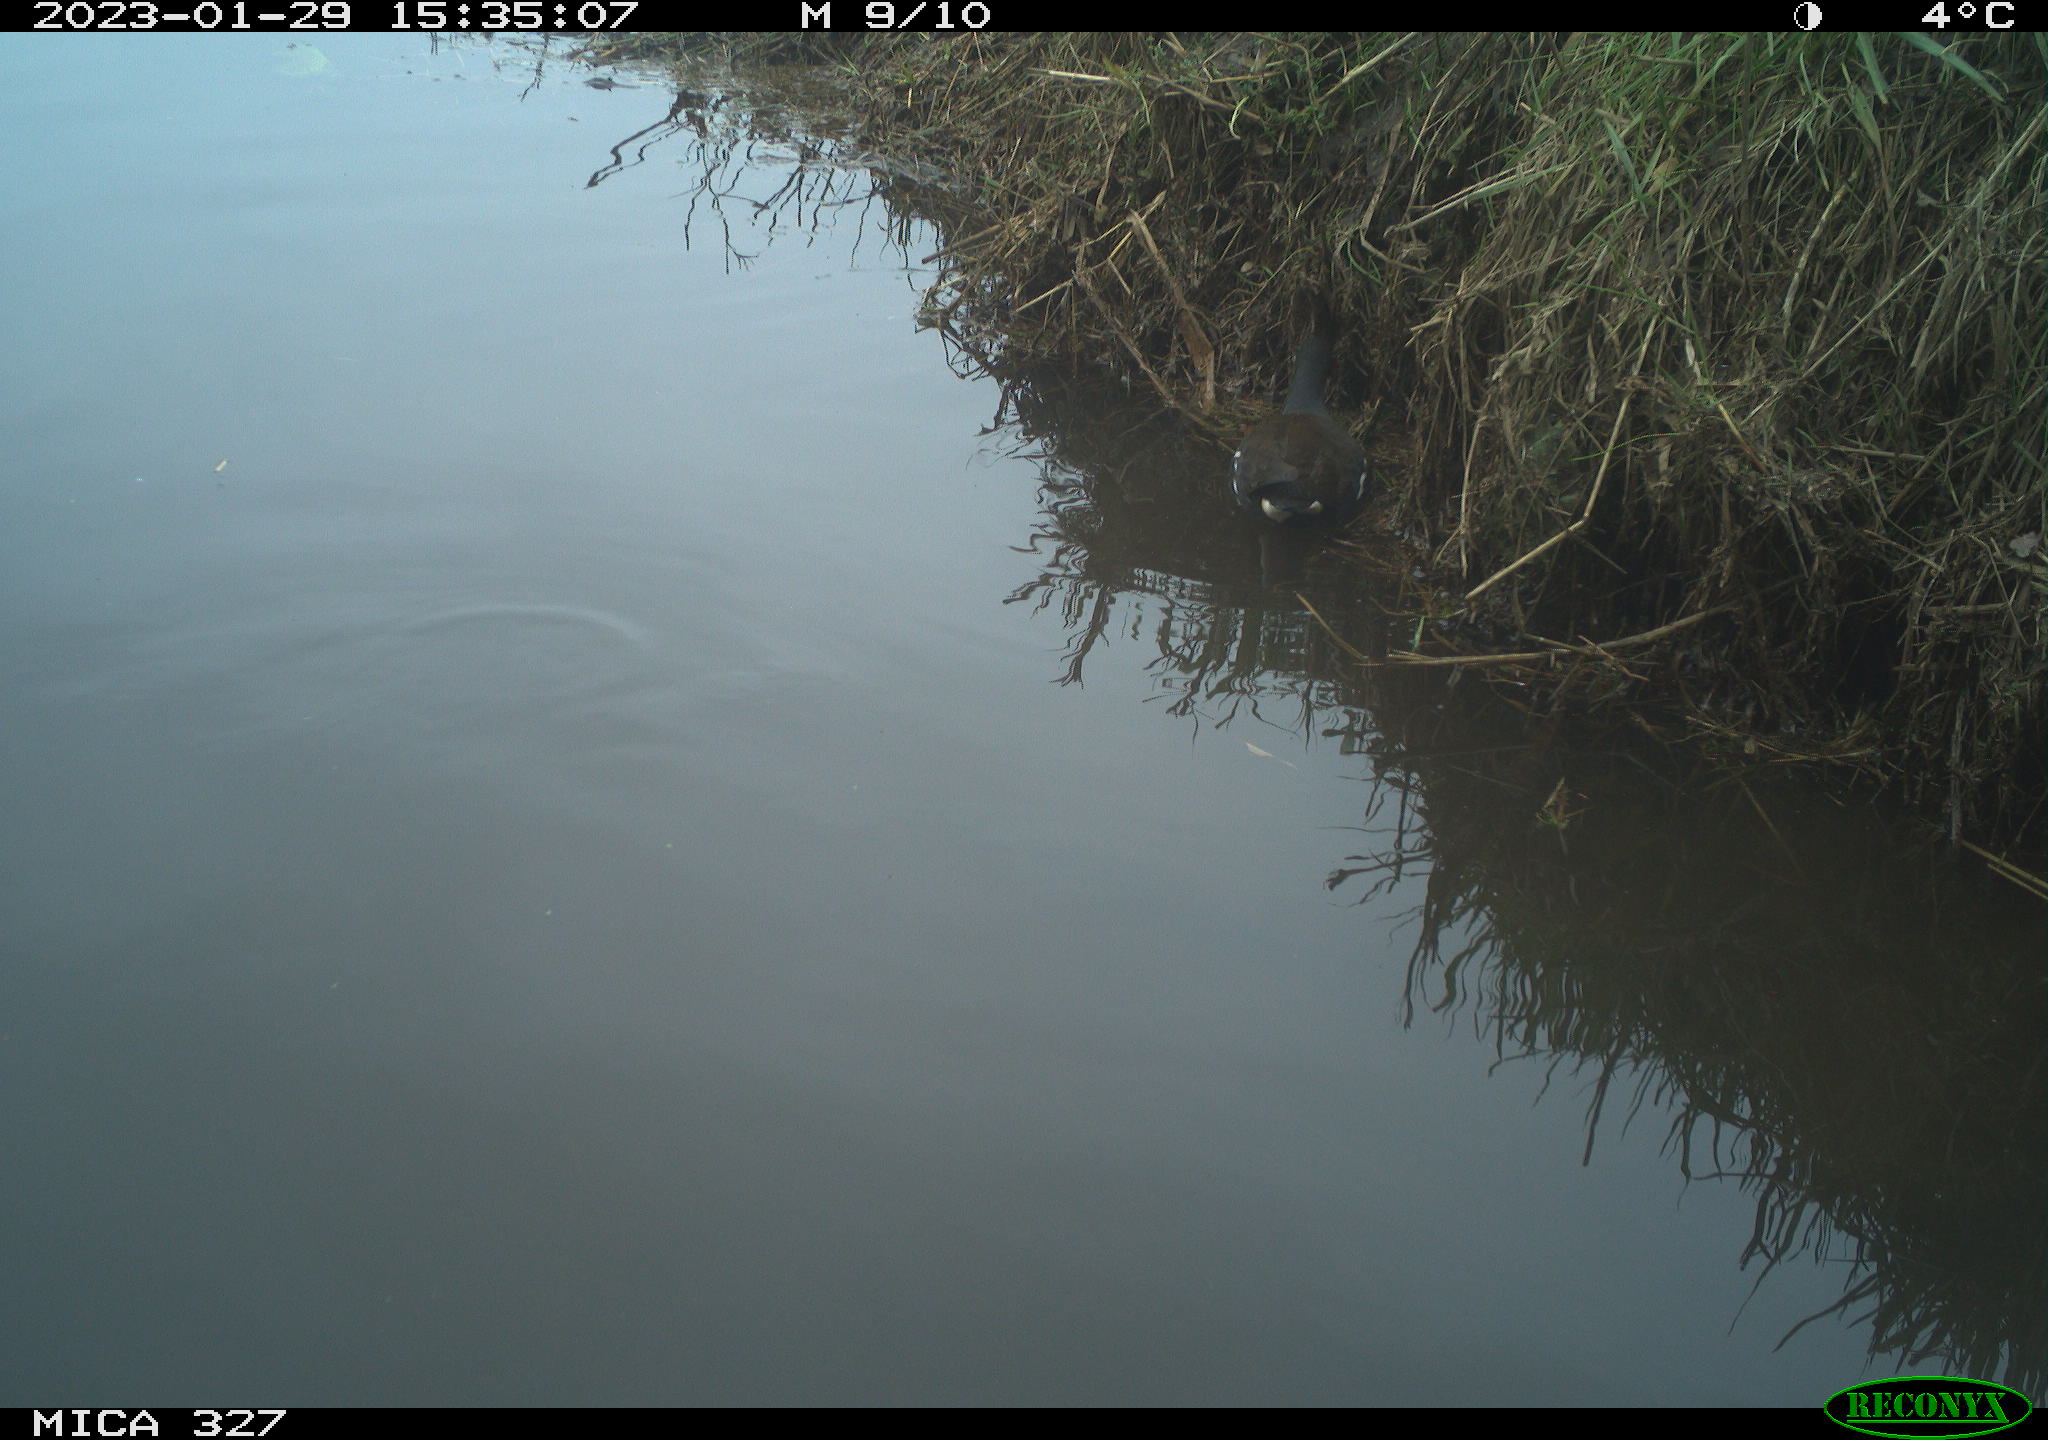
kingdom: Animalia
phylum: Chordata
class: Aves
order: Gruiformes
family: Rallidae
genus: Gallinula
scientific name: Gallinula chloropus
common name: Common moorhen
